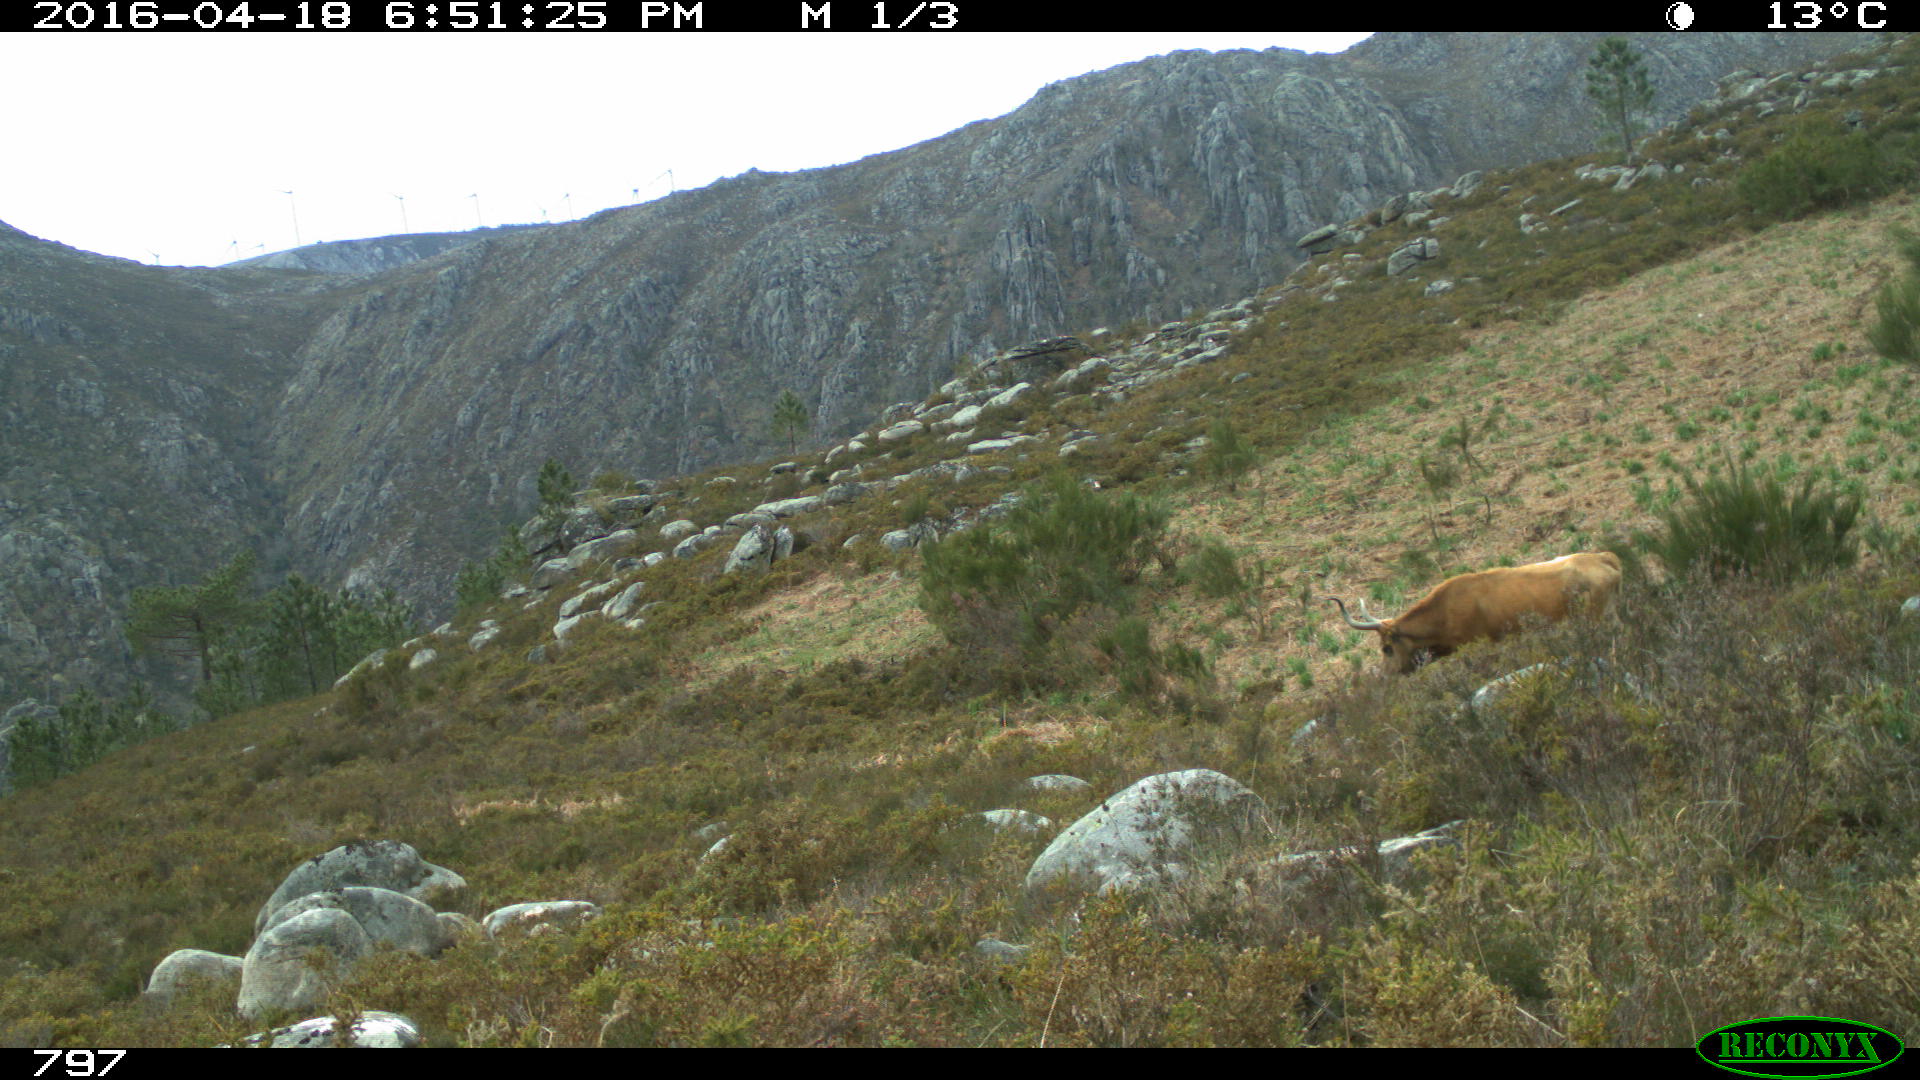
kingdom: Animalia
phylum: Chordata
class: Mammalia
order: Artiodactyla
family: Bovidae
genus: Bos
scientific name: Bos taurus
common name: Domesticated cattle
